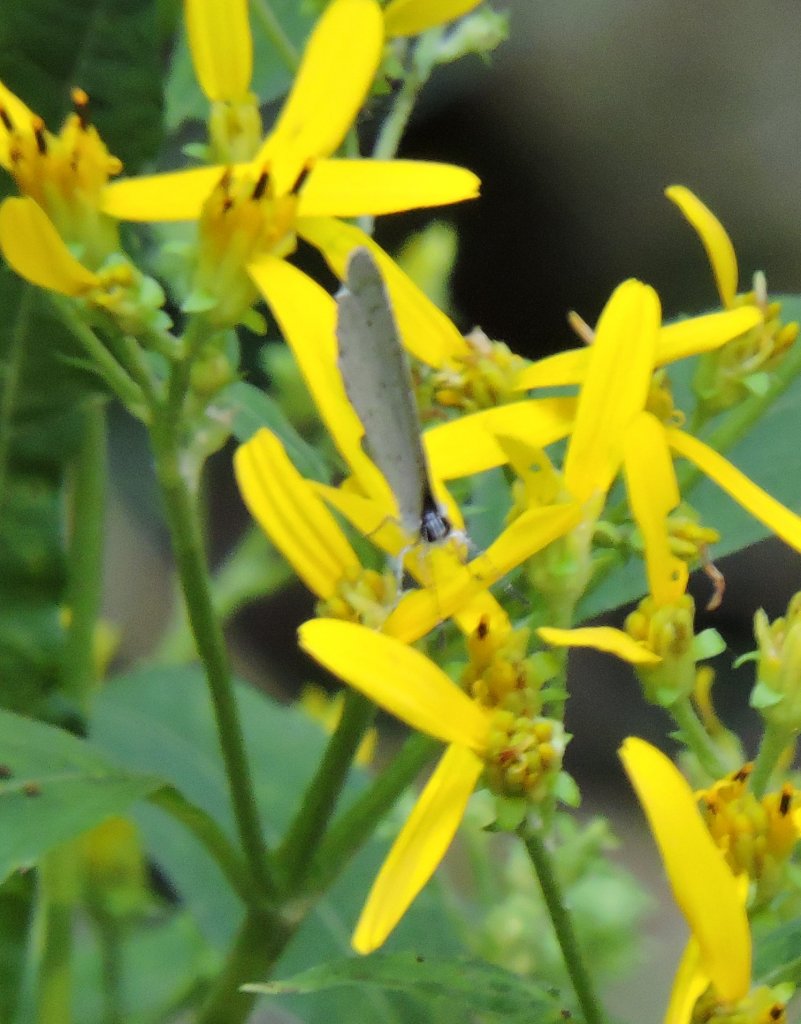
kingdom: Animalia
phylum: Arthropoda
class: Insecta
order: Lepidoptera
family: Lycaenidae
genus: Cyaniris
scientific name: Cyaniris neglecta
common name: Summer Azure
